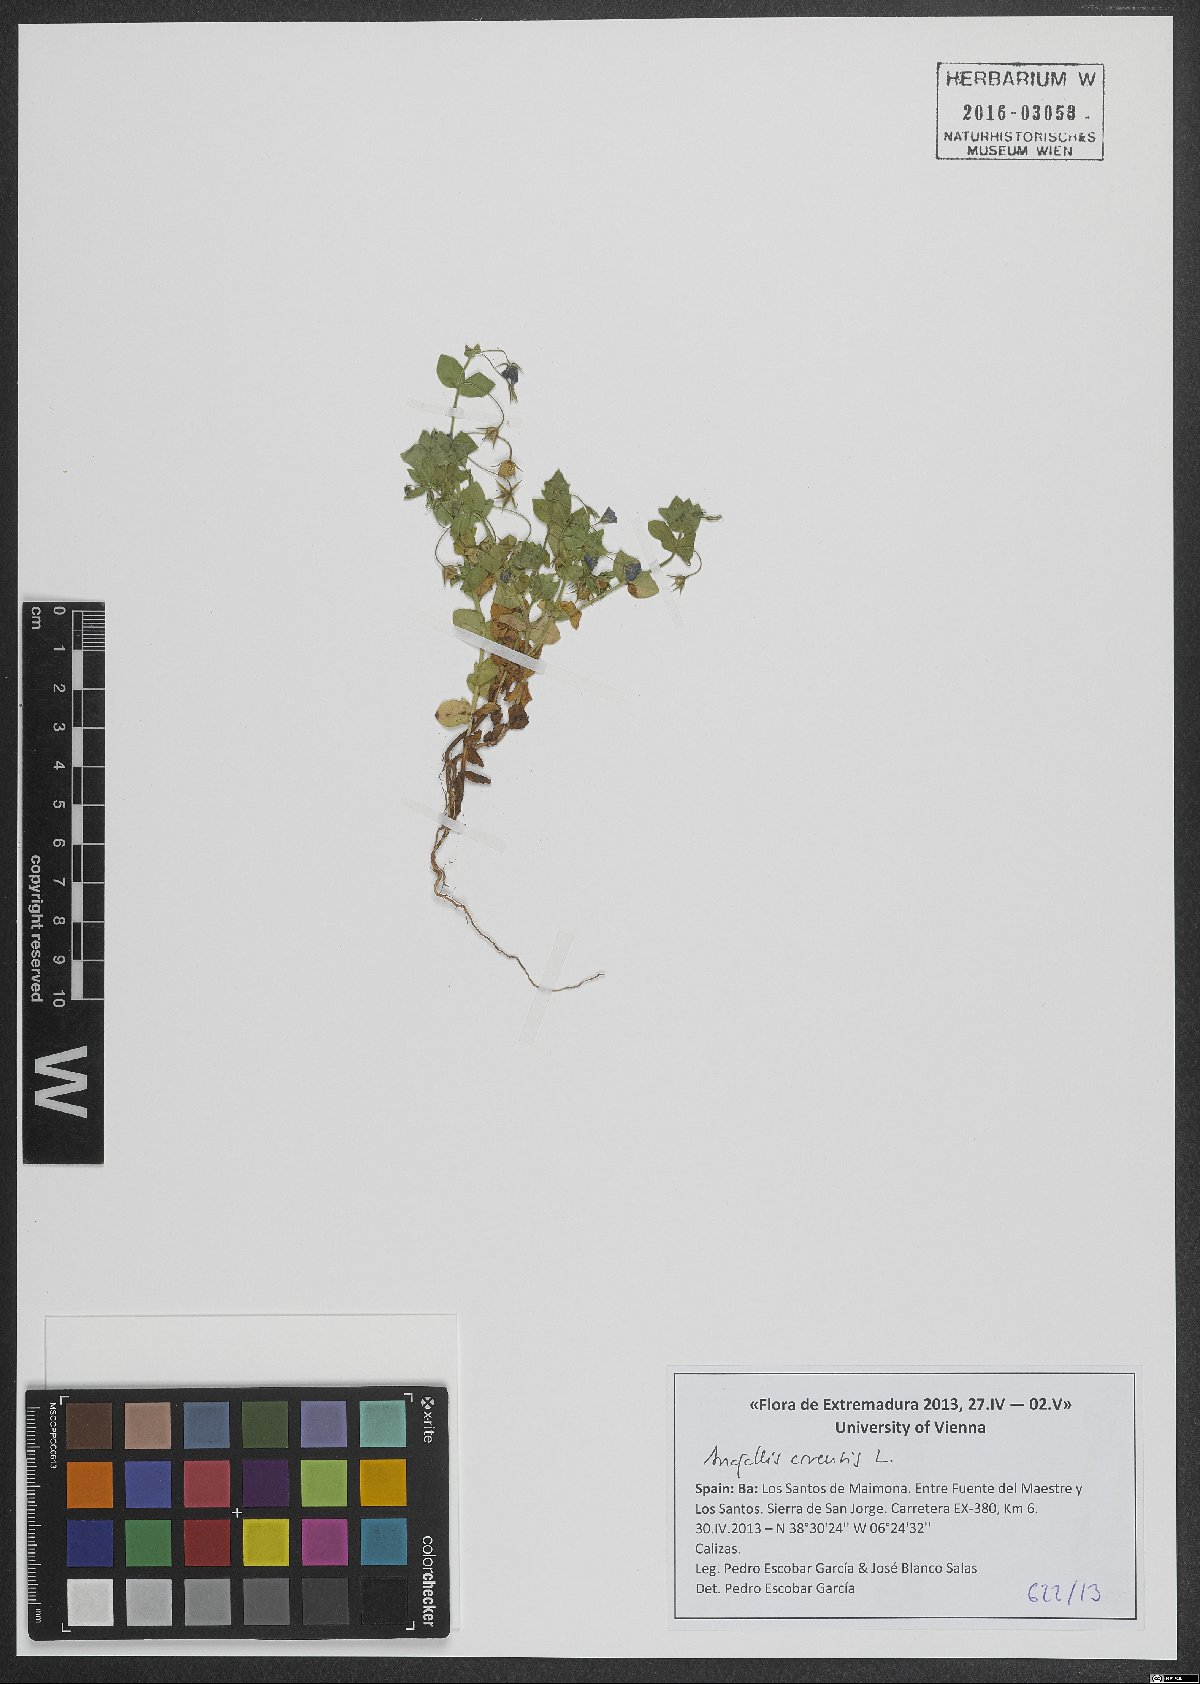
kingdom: Plantae
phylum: Tracheophyta
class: Magnoliopsida
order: Ericales
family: Primulaceae
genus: Lysimachia
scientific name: Lysimachia arvensis
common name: Scarlet pimpernel
